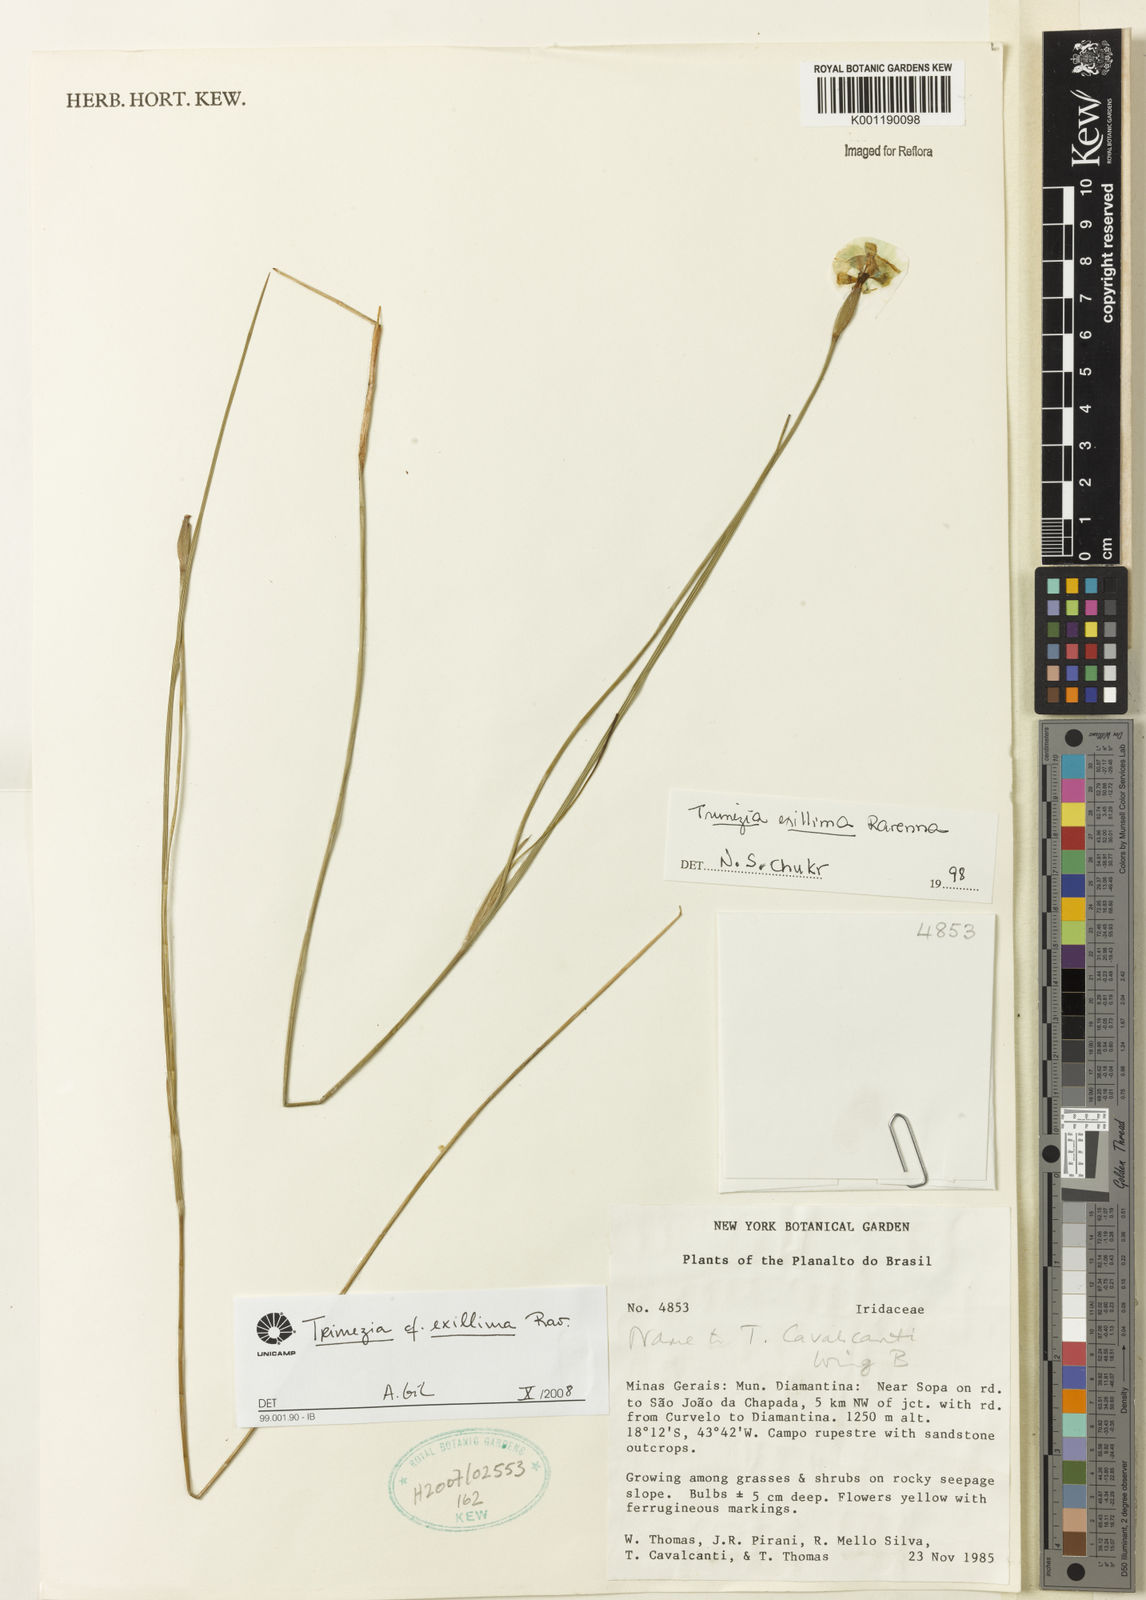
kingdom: Plantae
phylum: Tracheophyta
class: Liliopsida
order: Asparagales
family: Iridaceae
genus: Trimezia
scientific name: Trimezia exillima
